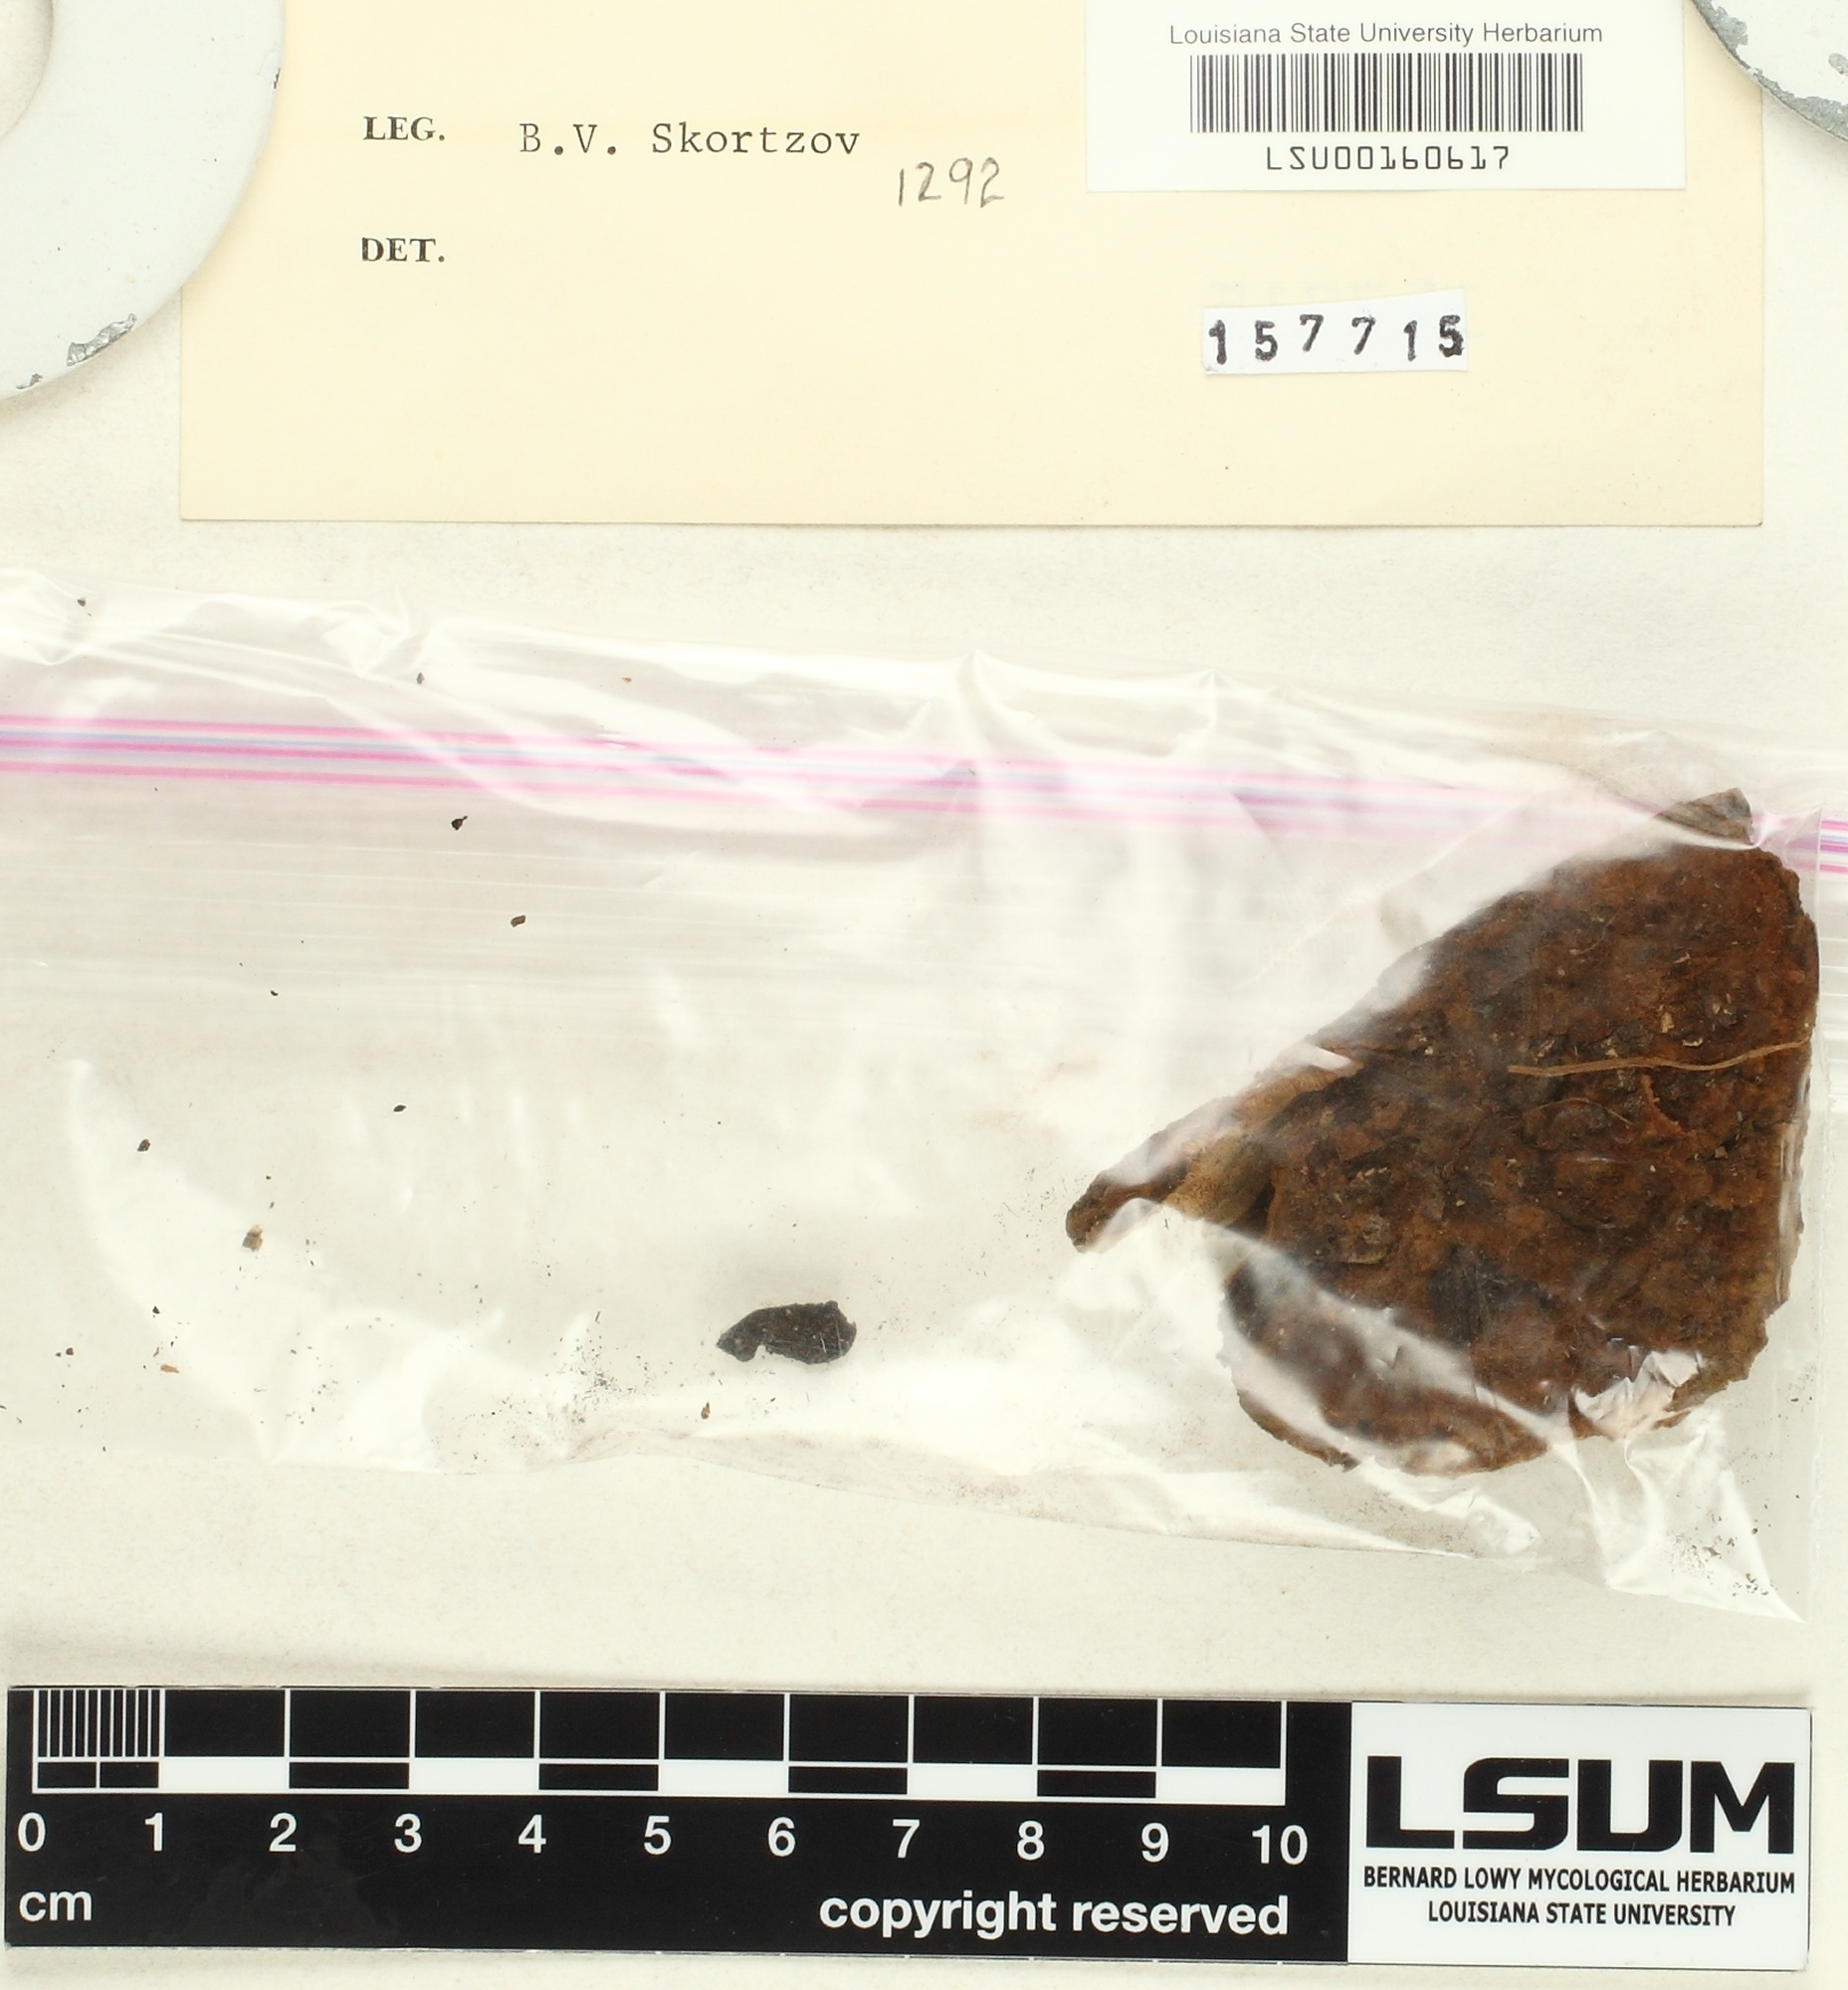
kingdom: Fungi
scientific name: Fungi
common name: Fungi
